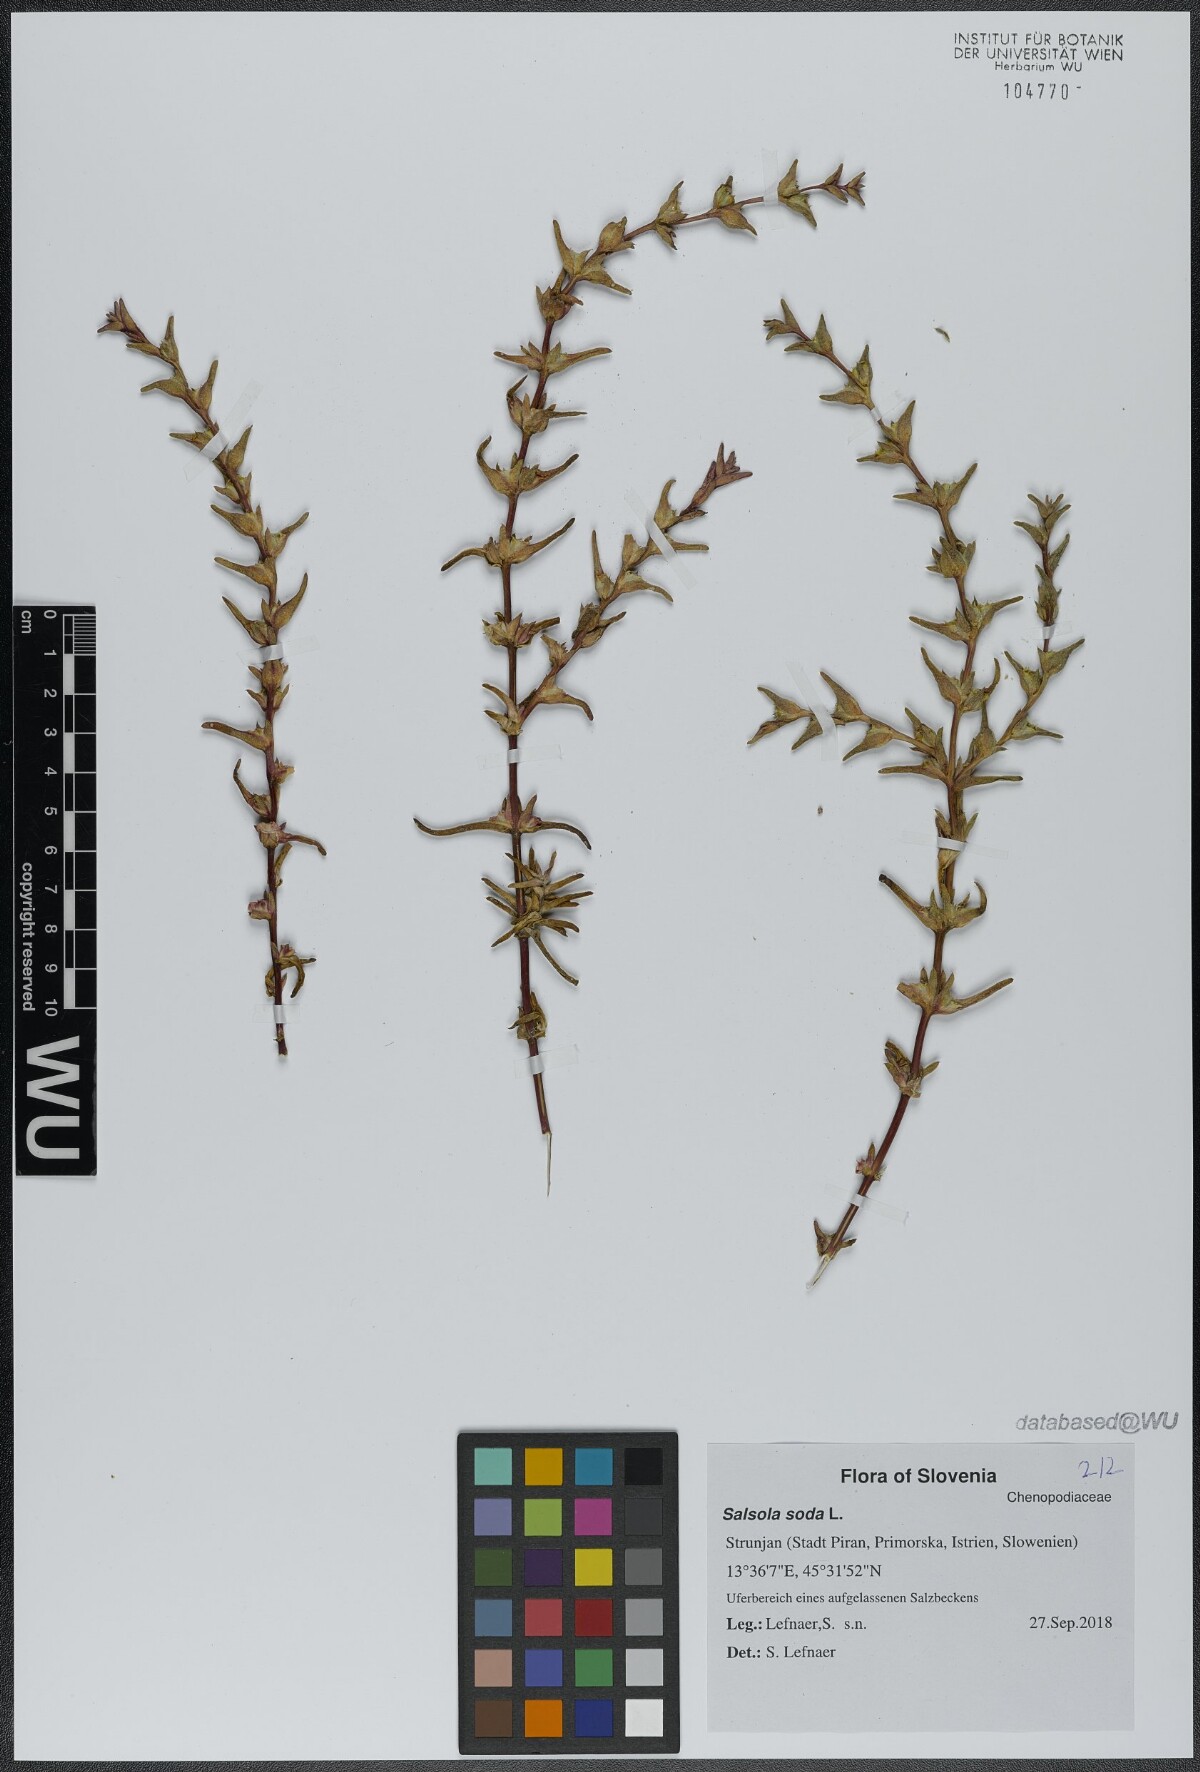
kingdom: Plantae
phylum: Tracheophyta
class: Magnoliopsida
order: Caryophyllales
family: Amaranthaceae
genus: Soda
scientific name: Soda inermis
